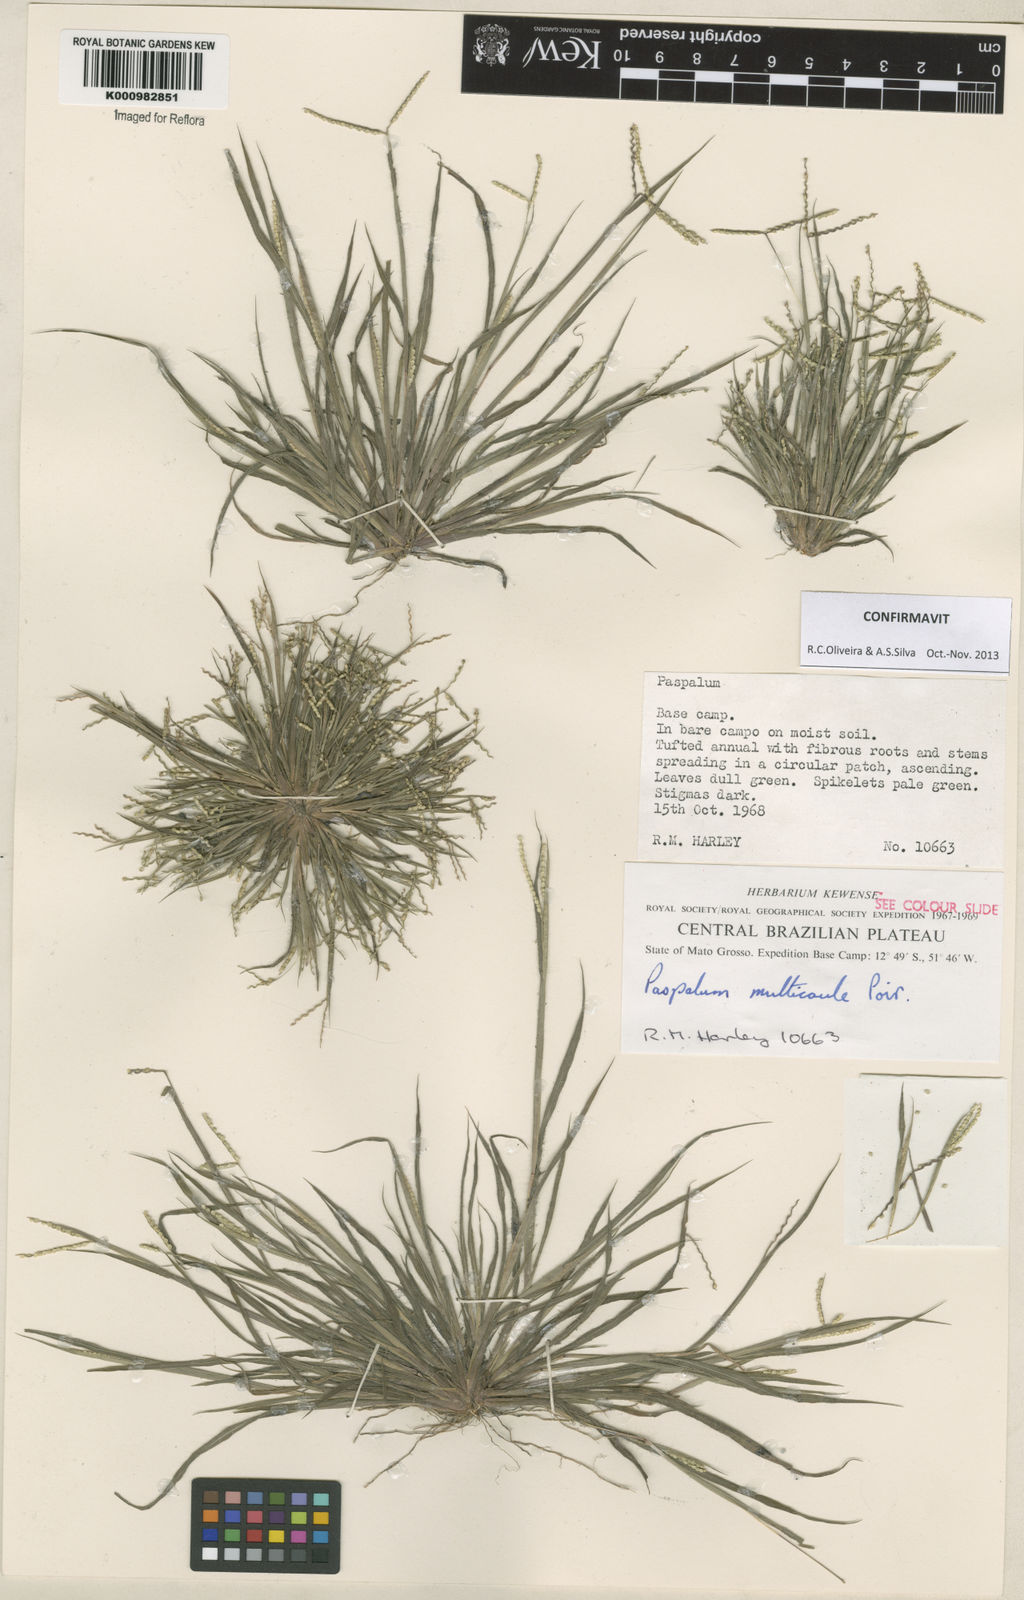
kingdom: Plantae
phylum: Tracheophyta
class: Liliopsida
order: Poales
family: Poaceae
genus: Paspalum
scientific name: Paspalum multicaule
